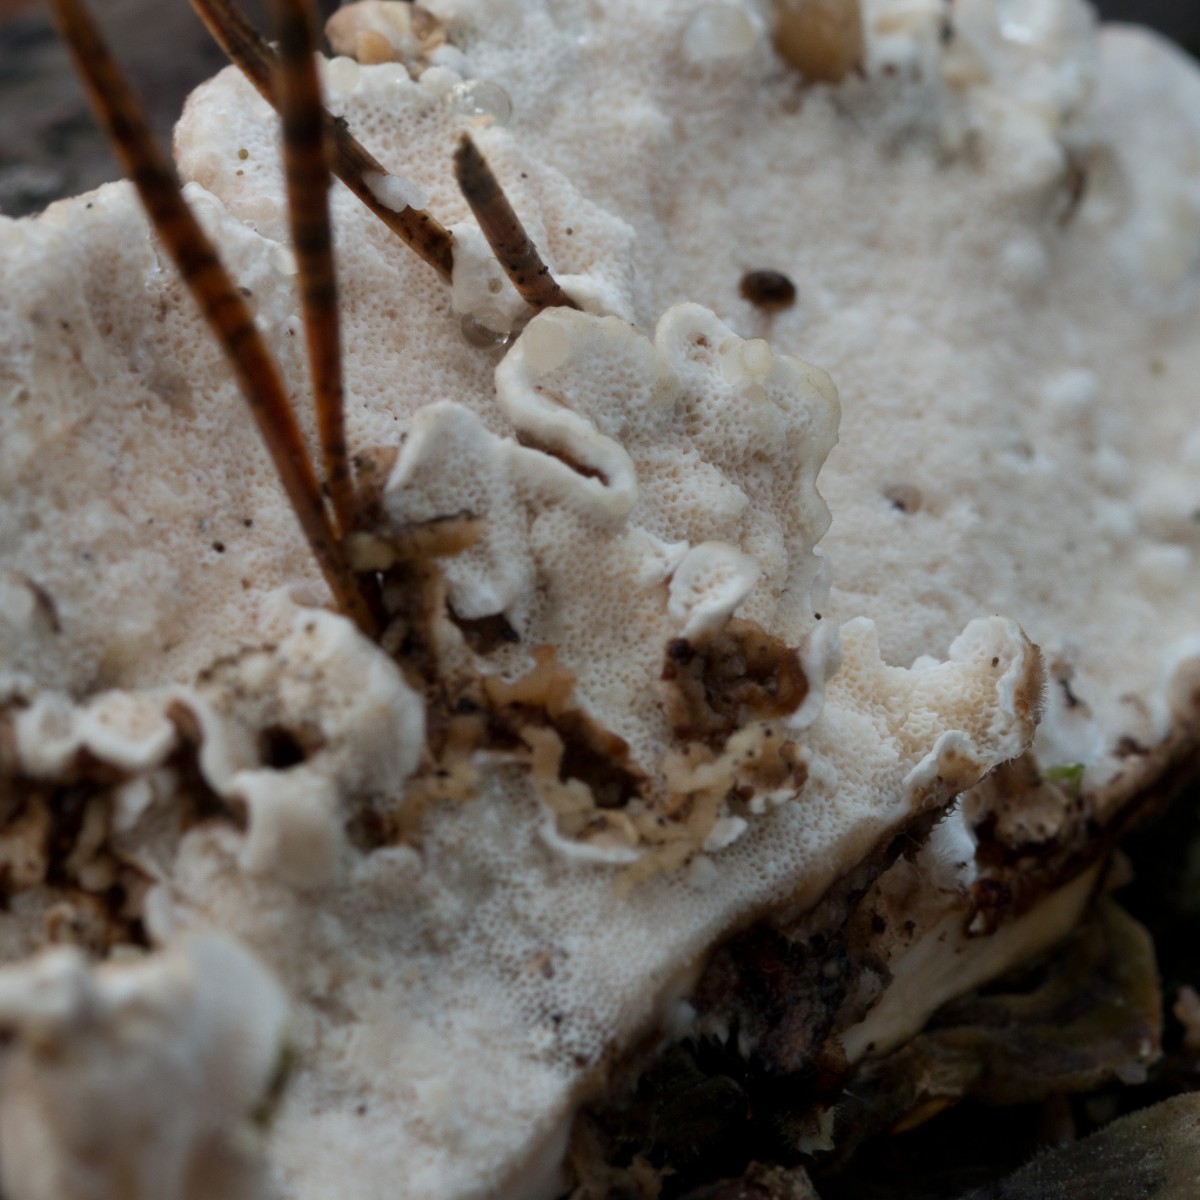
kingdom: Fungi
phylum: Basidiomycota
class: Agaricomycetes
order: Polyporales
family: Polyporaceae
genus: Trametes
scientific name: Trametes versicolor
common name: broget læderporesvamp
